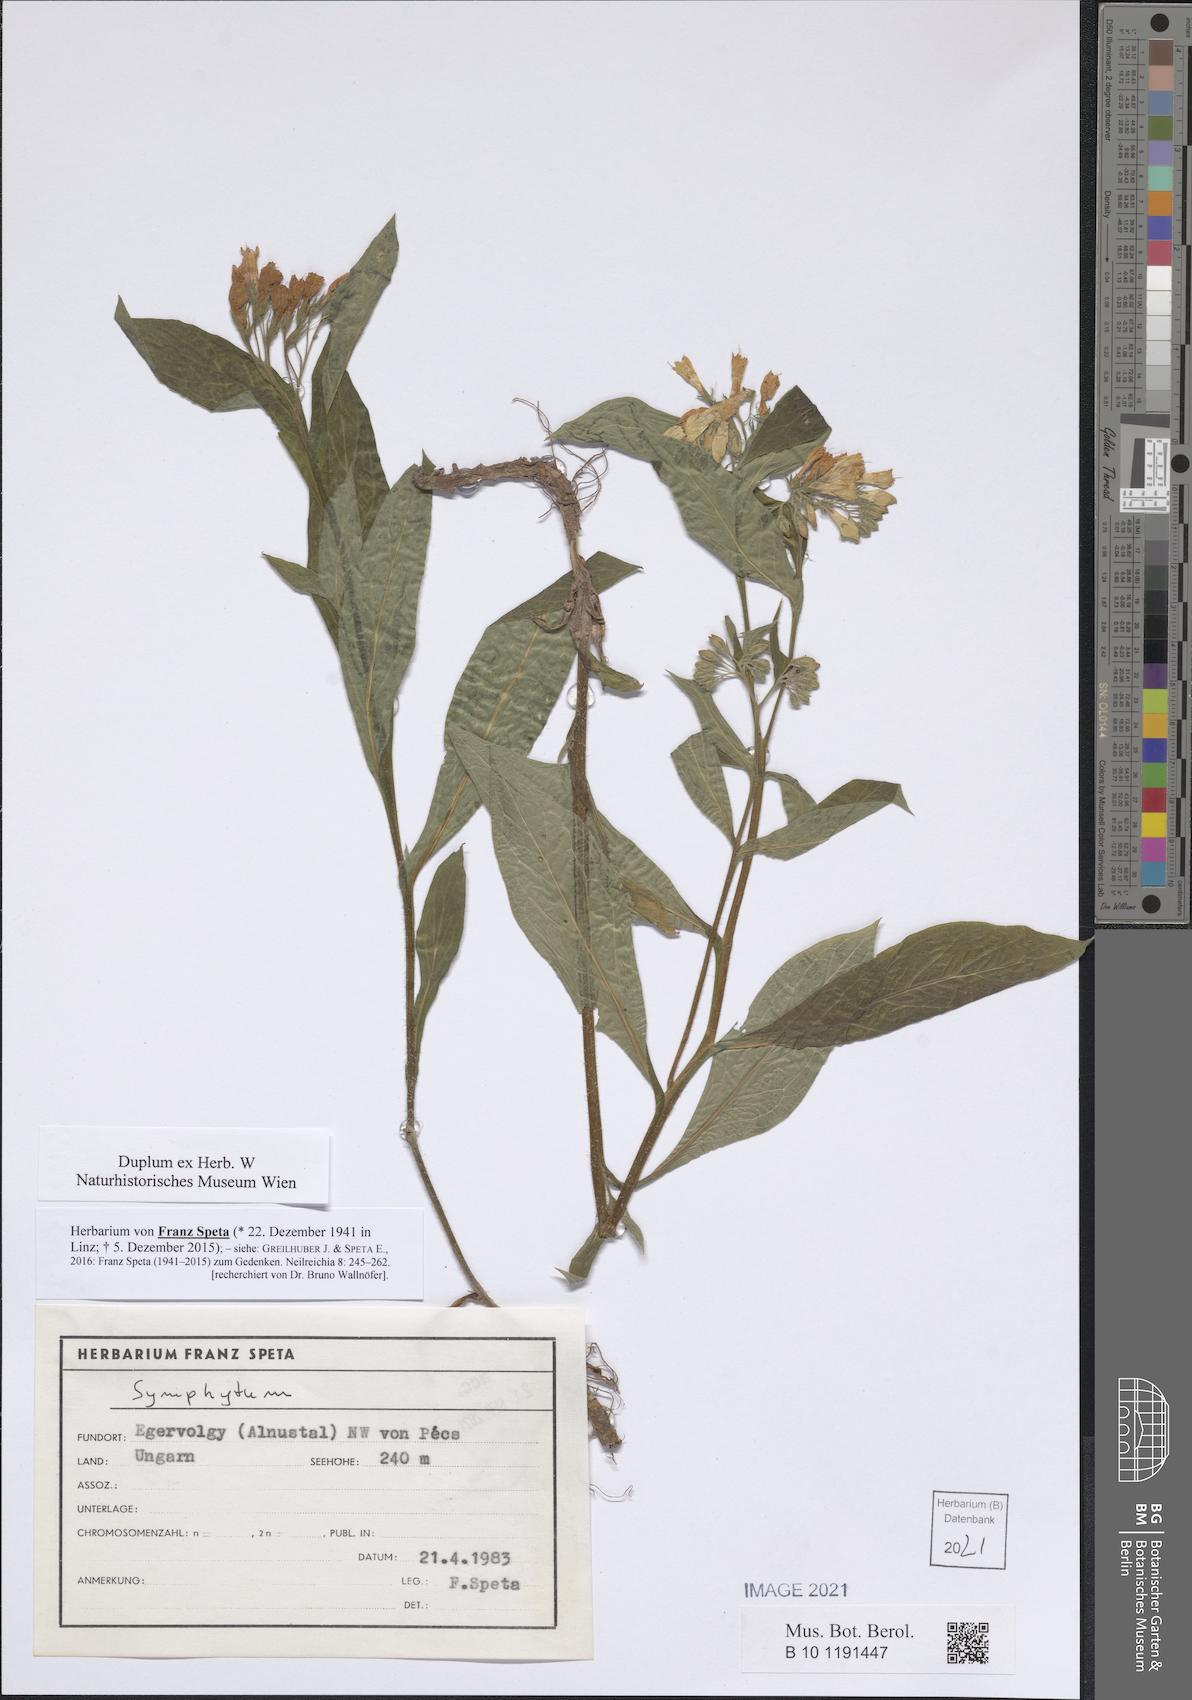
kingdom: Plantae
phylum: Tracheophyta
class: Magnoliopsida
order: Boraginales
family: Boraginaceae
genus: Symphytum
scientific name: Symphytum
